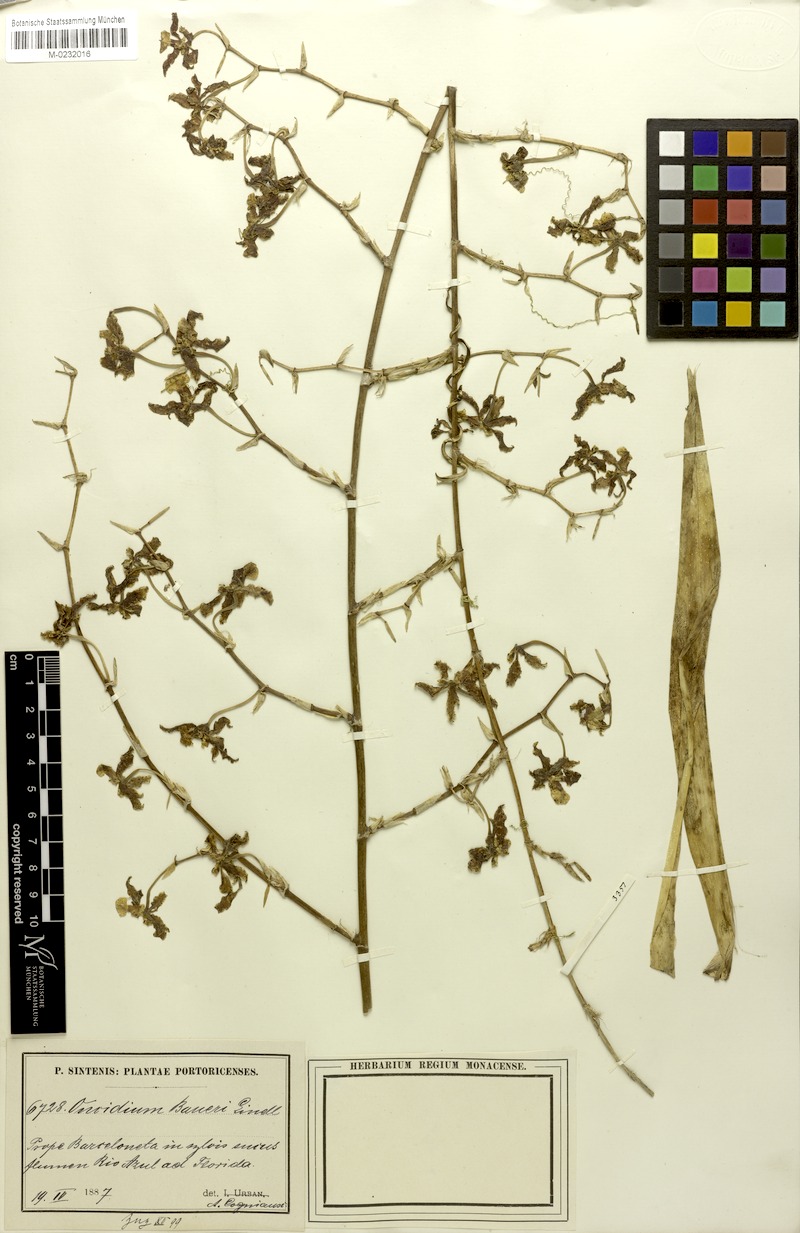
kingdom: Plantae
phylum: Tracheophyta
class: Liliopsida
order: Asparagales
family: Orchidaceae
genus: Oncidium
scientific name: Oncidium baueri
